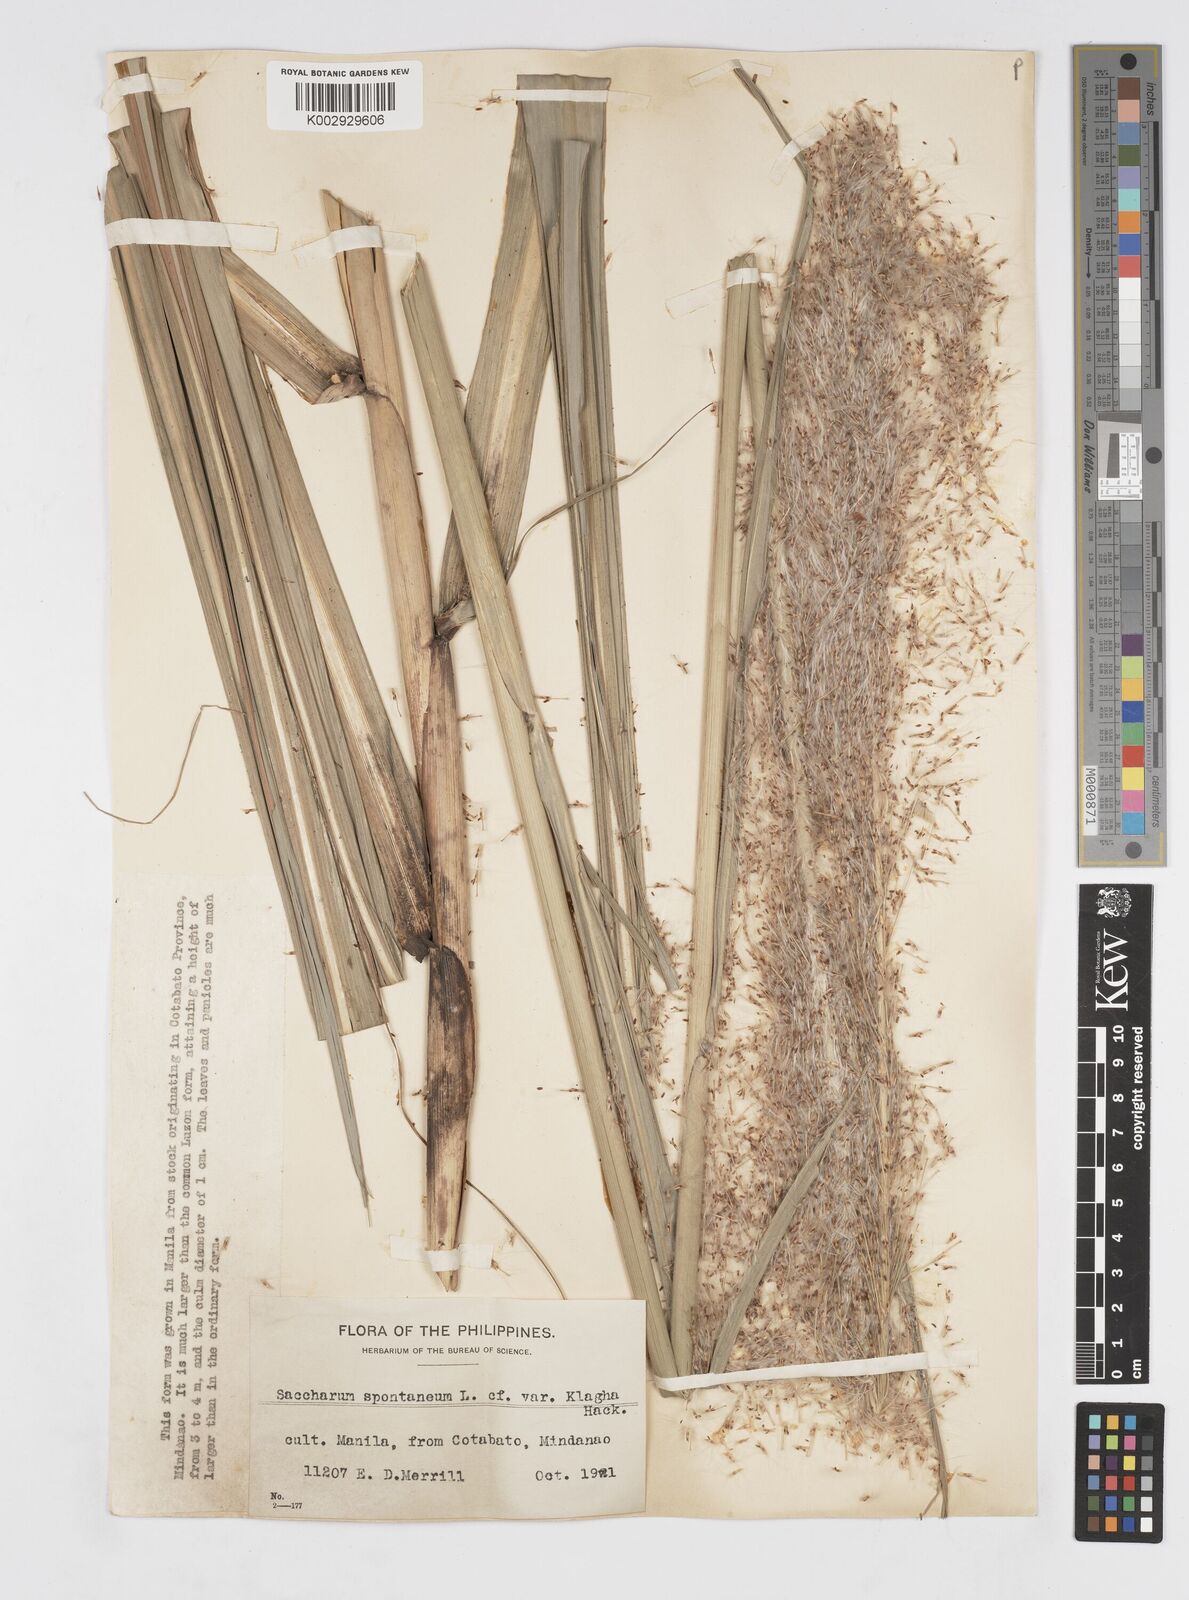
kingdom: Plantae
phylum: Tracheophyta
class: Liliopsida
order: Poales
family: Poaceae
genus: Saccharum
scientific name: Saccharum spontaneum
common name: Wild sugarcane
